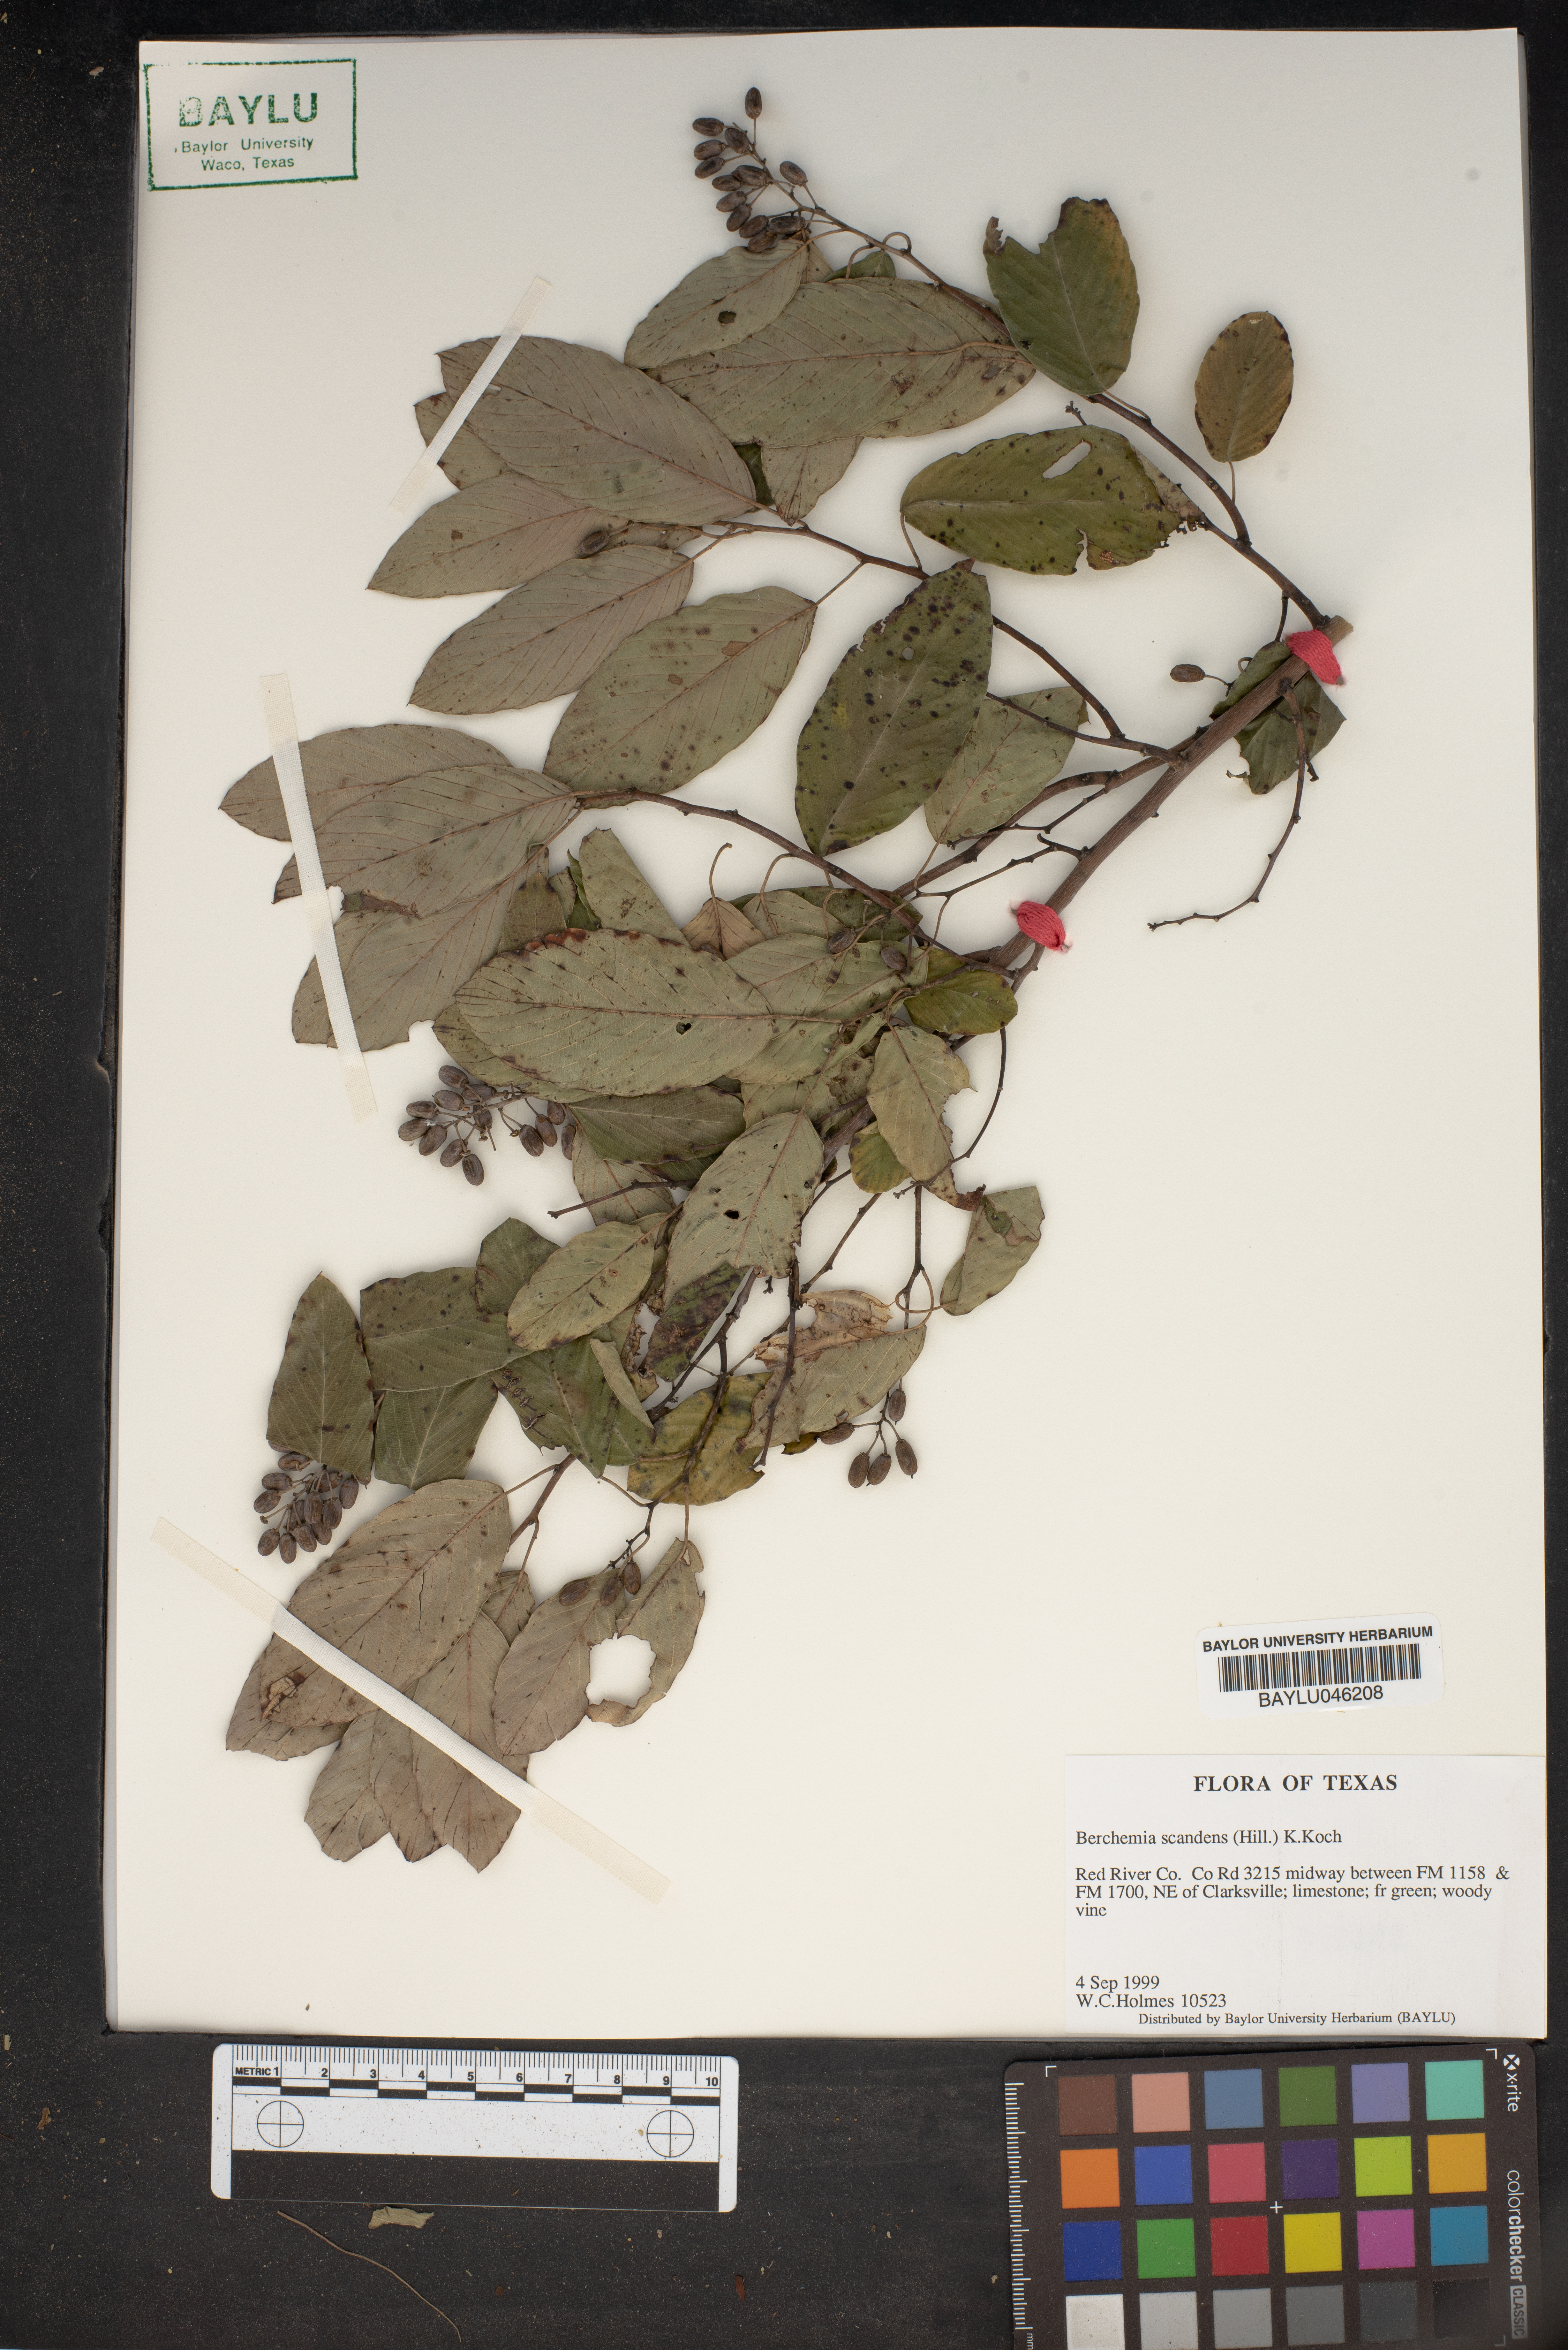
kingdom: Plantae
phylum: Tracheophyta
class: Magnoliopsida
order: Rosales
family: Rhamnaceae
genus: Berchemia
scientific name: Berchemia scandens
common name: Supplejack
